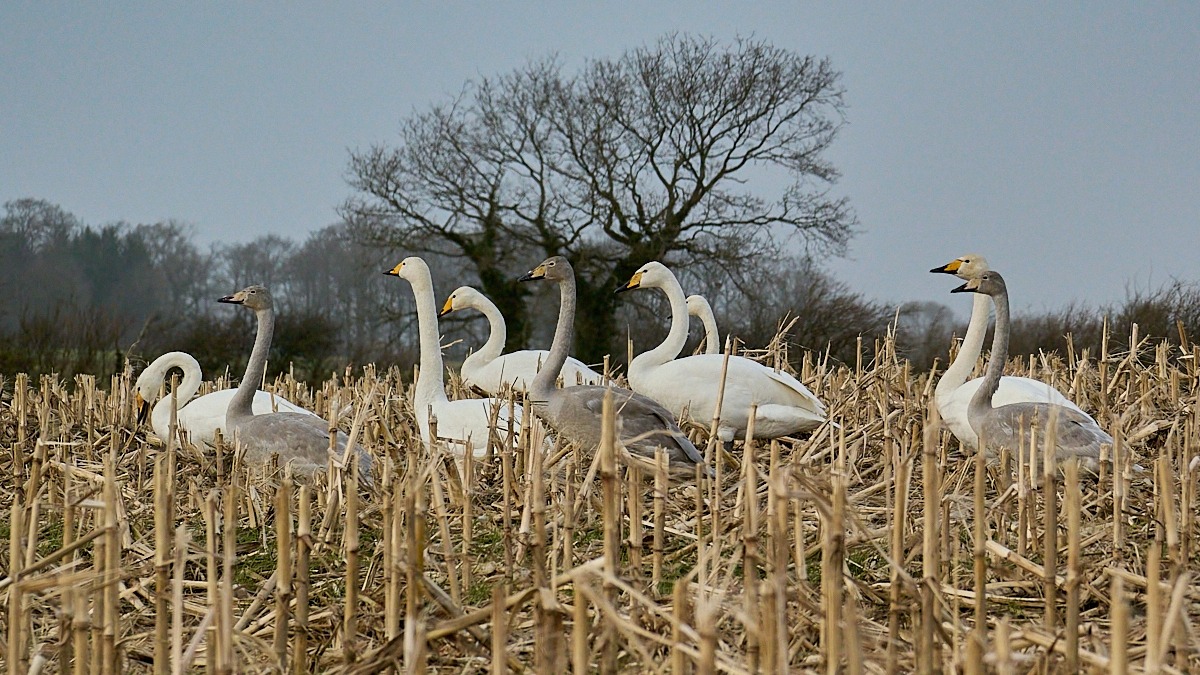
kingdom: Animalia
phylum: Chordata
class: Aves
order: Anseriformes
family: Anatidae
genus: Cygnus
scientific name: Cygnus cygnus
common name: Sangsvane
